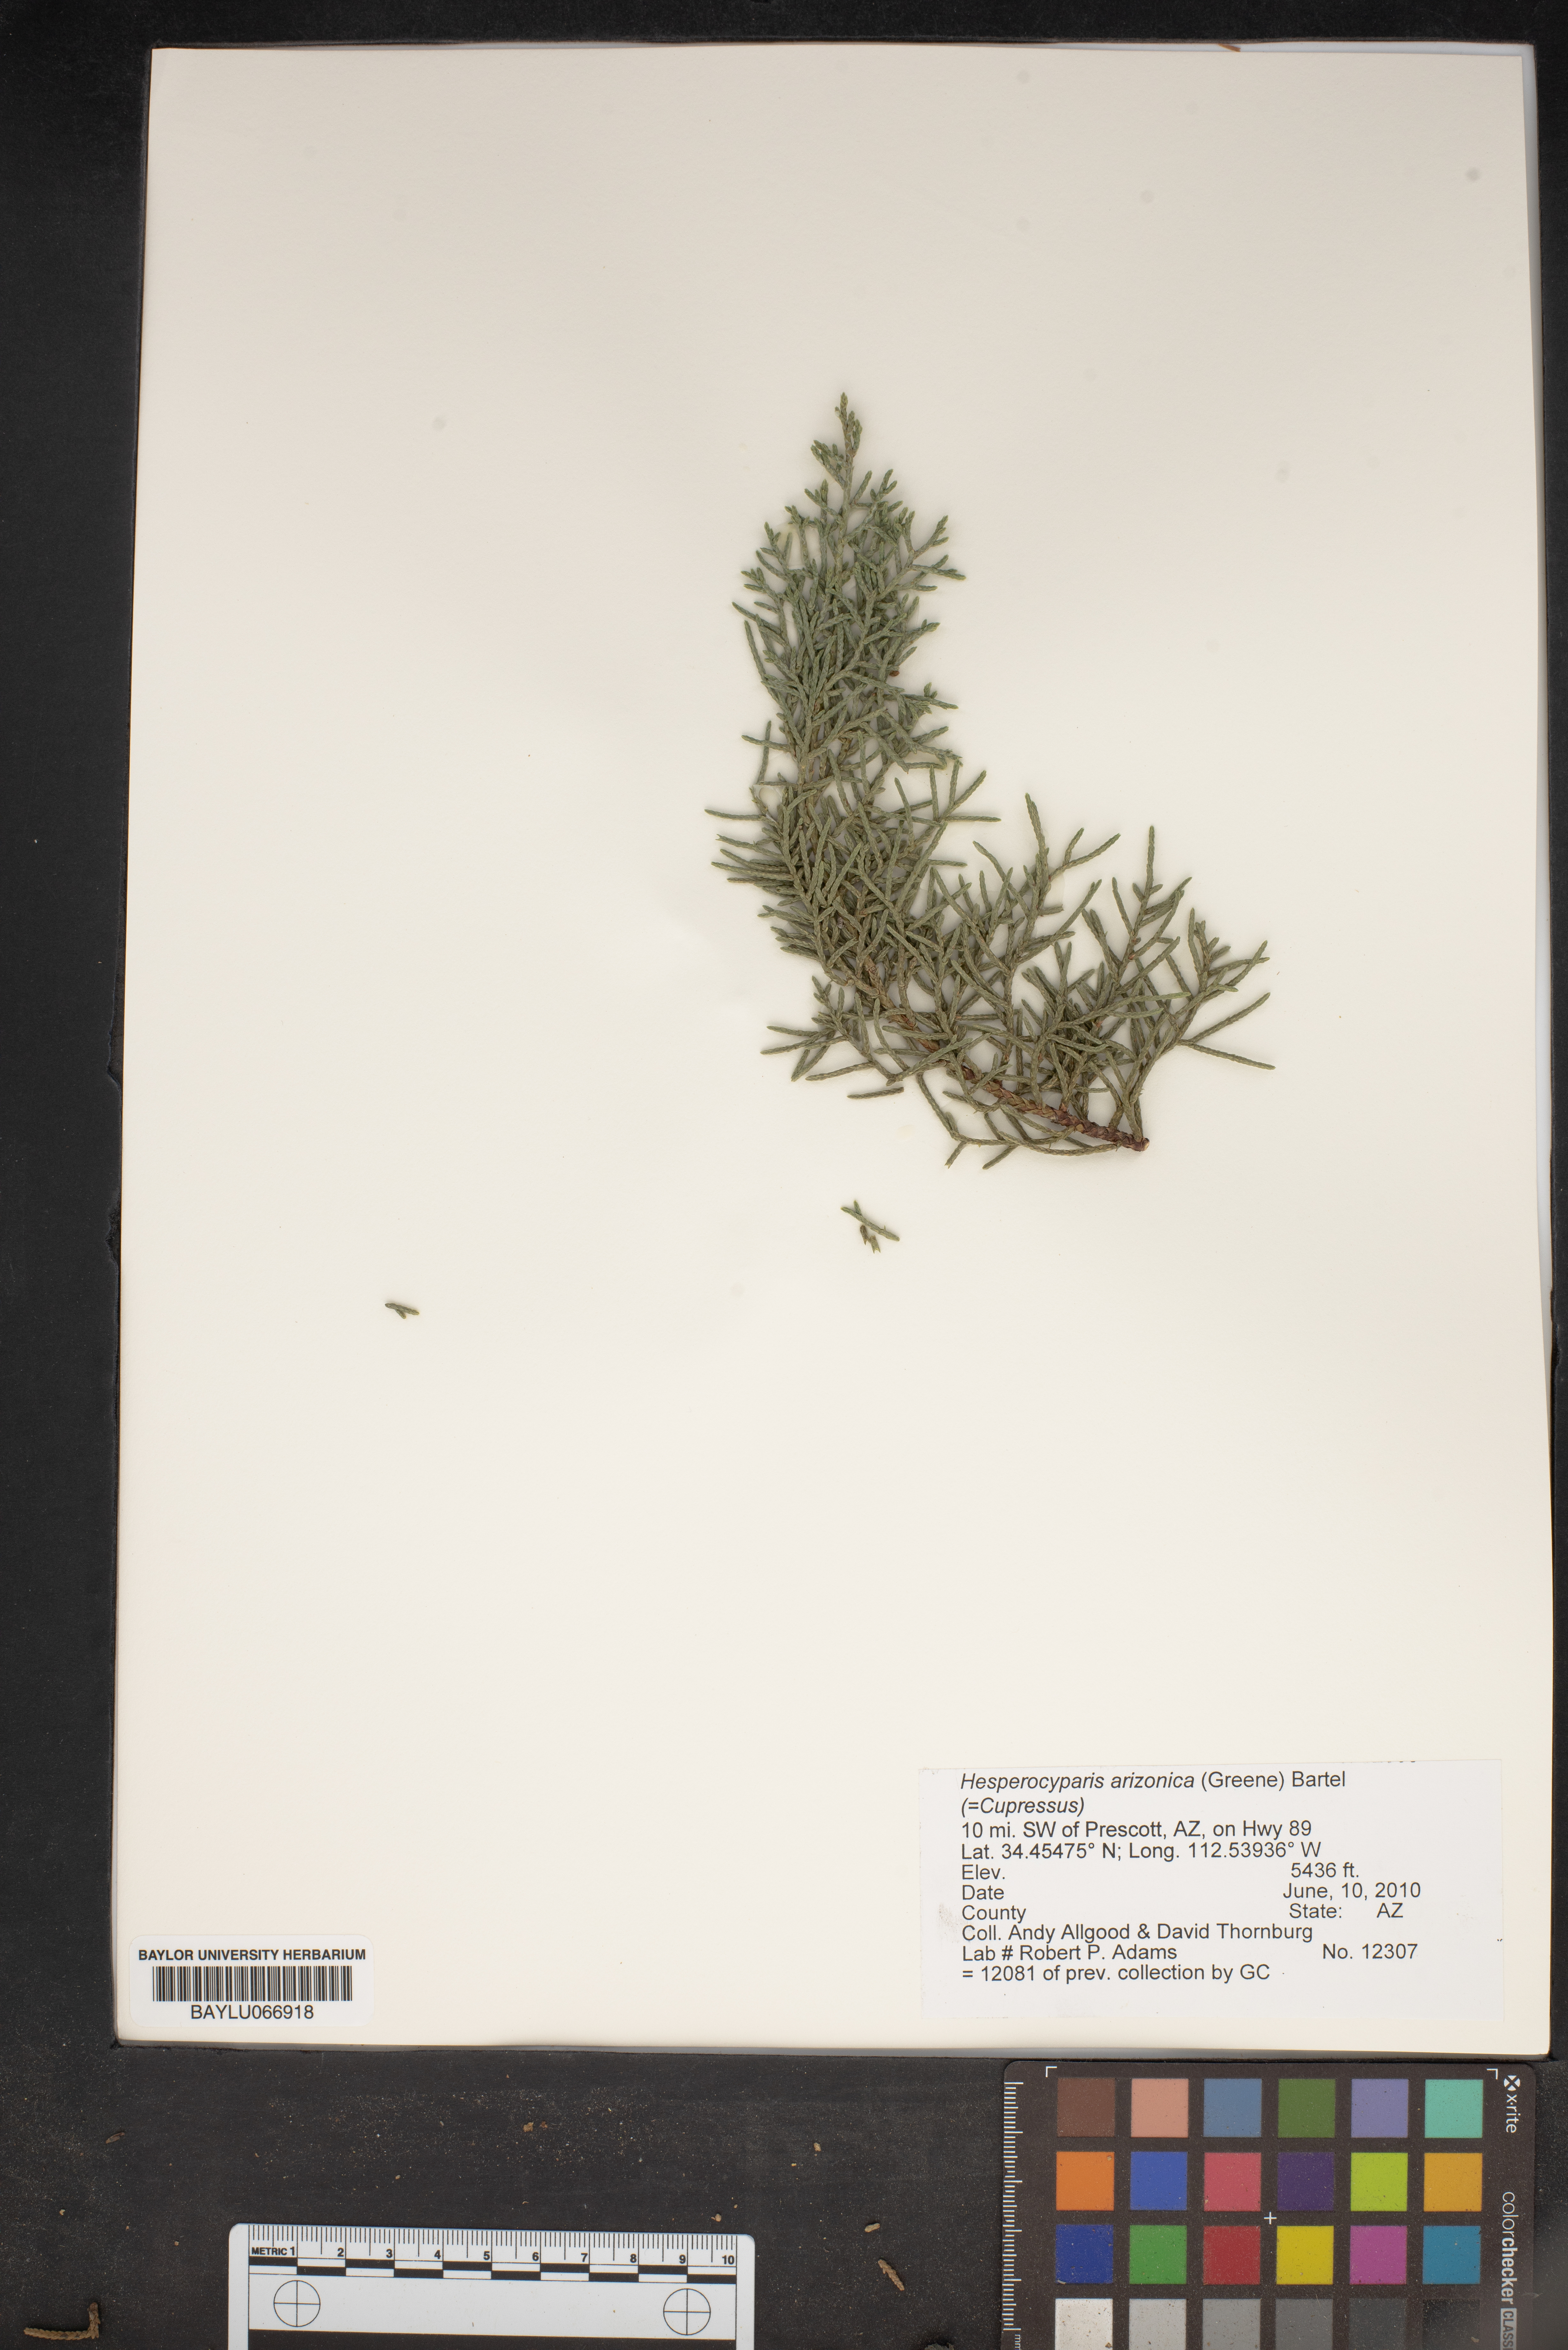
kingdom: Plantae
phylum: Tracheophyta
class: Pinopsida
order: Pinales
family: Cupressaceae
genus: Cupressus
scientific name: Cupressus arizonica
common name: Arizona cypress
